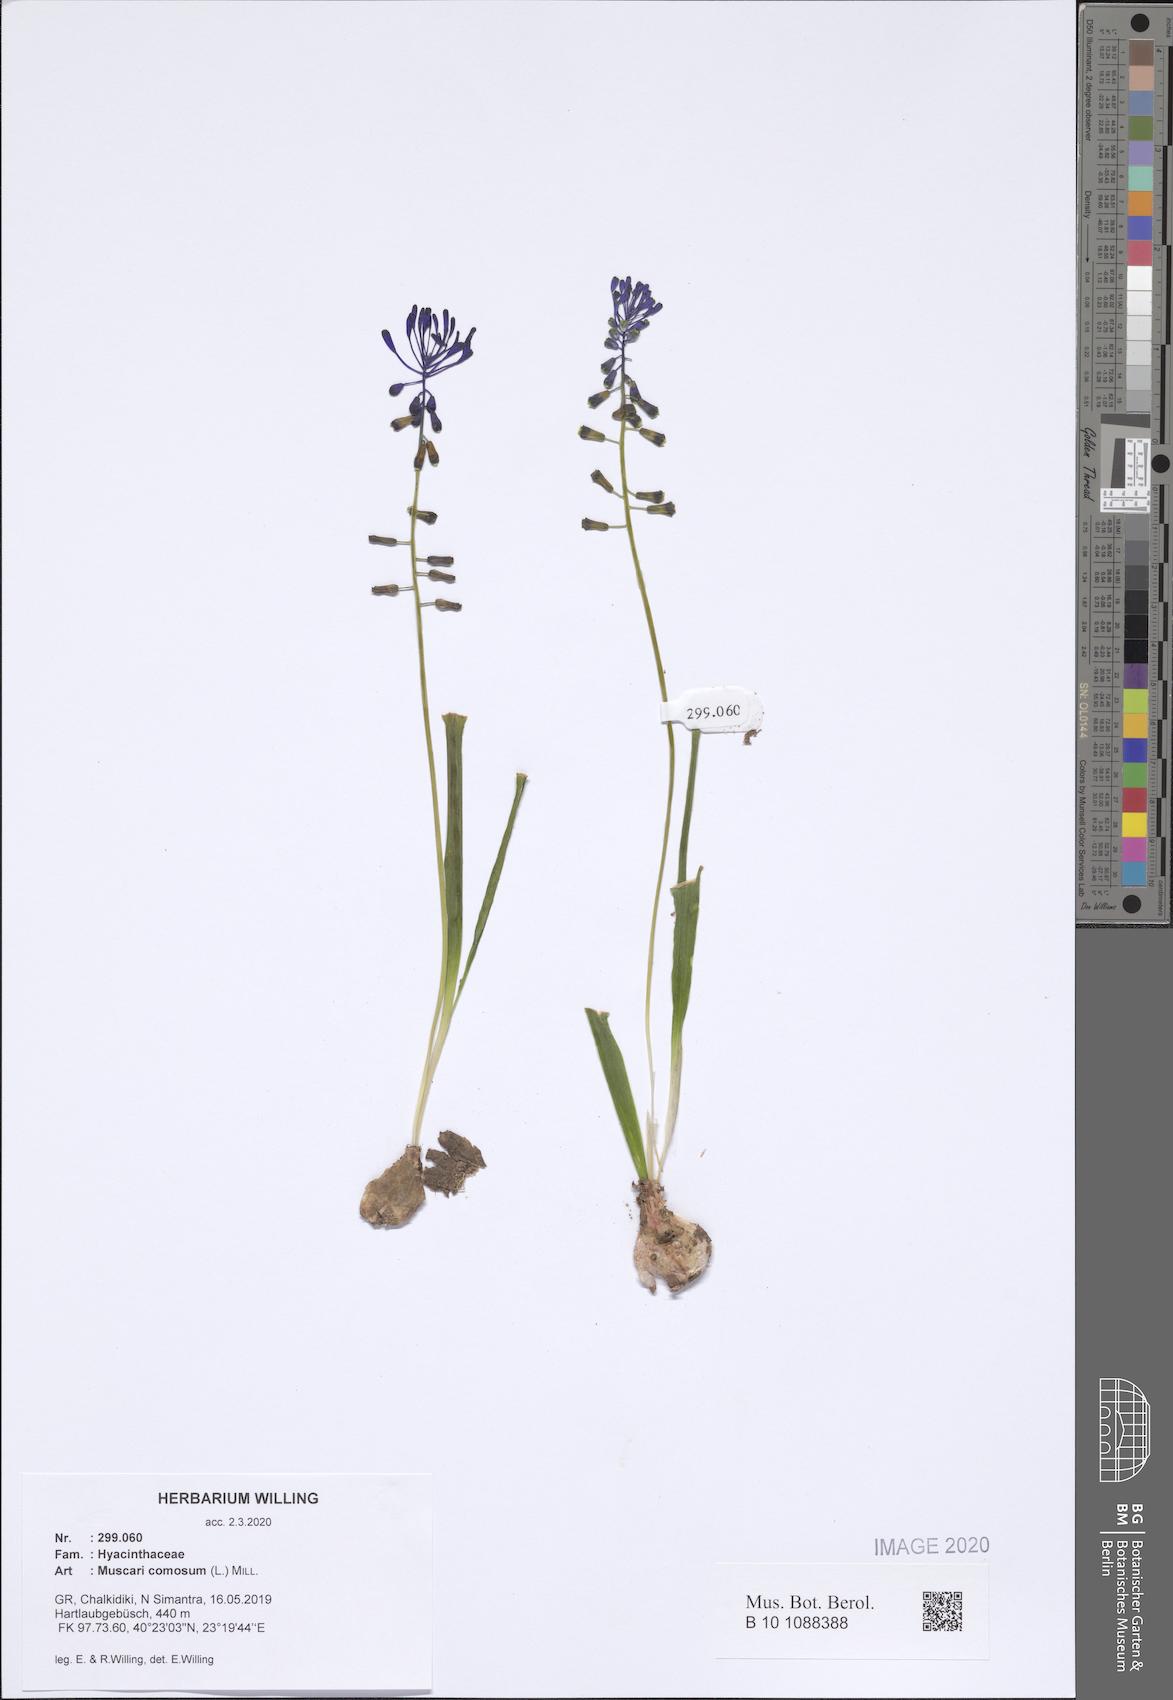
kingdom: Plantae
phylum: Tracheophyta
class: Liliopsida
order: Asparagales
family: Asparagaceae
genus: Muscari
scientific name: Muscari comosum
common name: Tassel hyacinth
